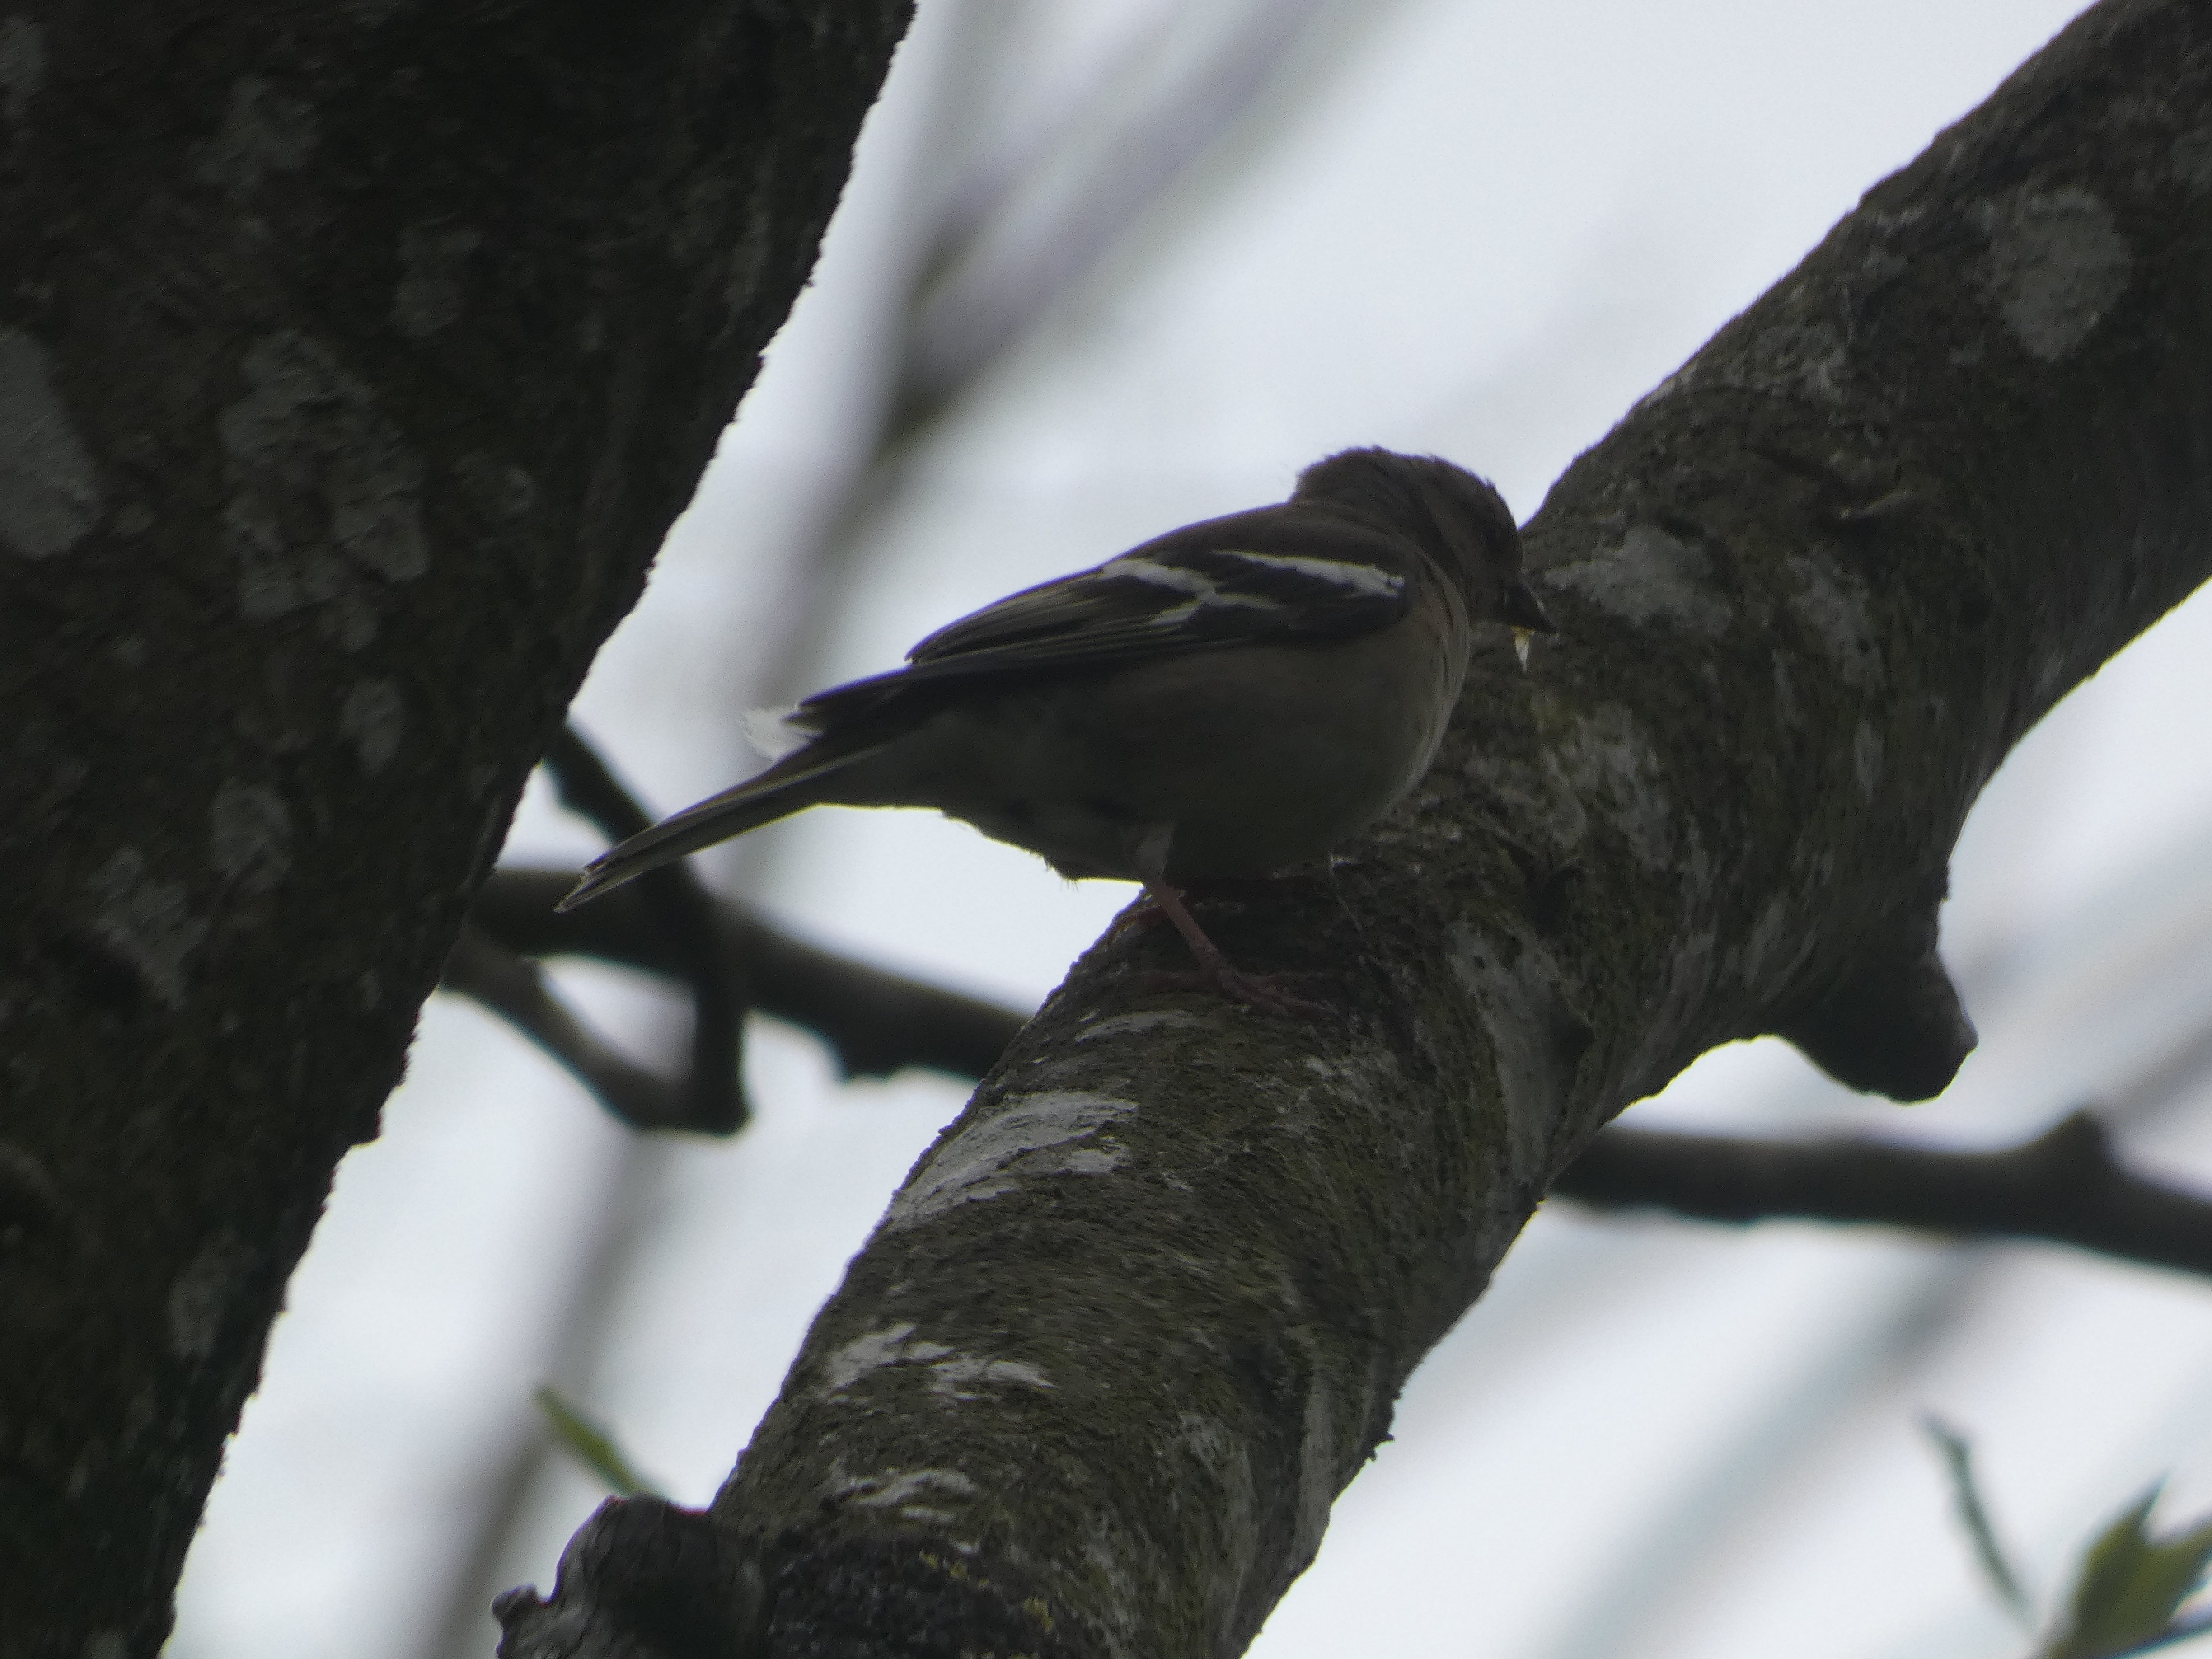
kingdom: Animalia
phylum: Chordata
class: Aves
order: Passeriformes
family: Fringillidae
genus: Fringilla
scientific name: Fringilla coelebs
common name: Bogfinke
